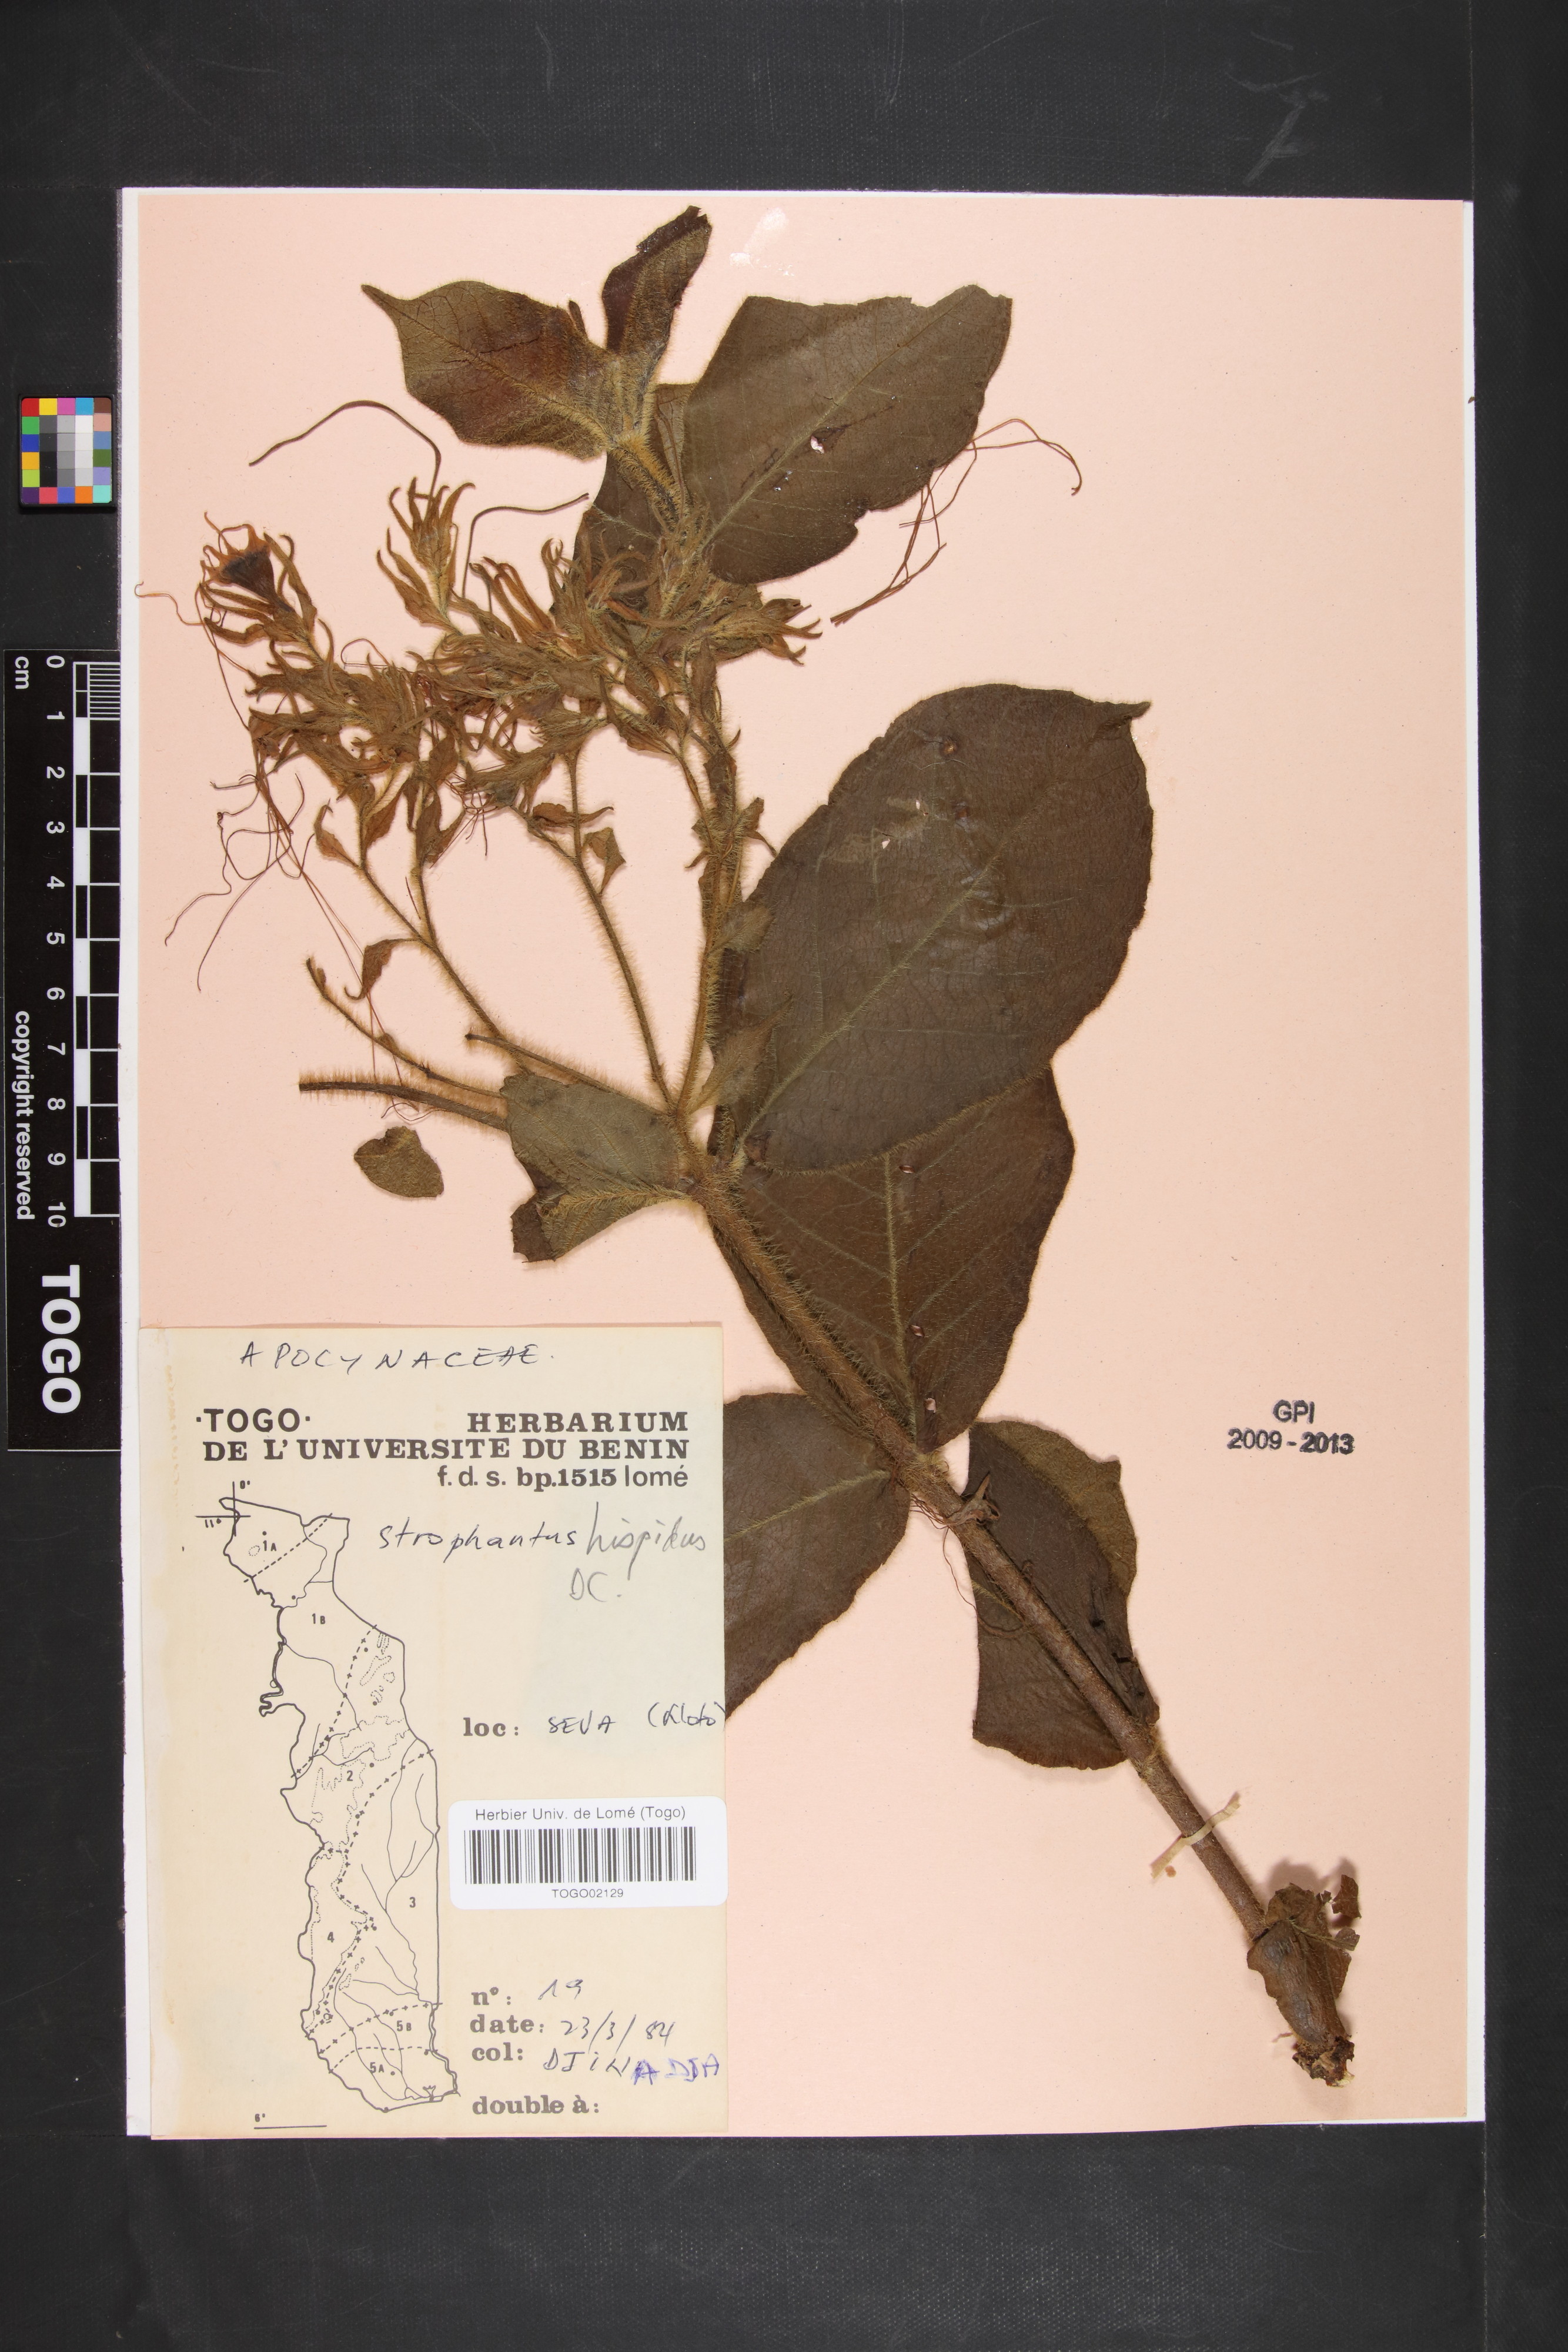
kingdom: Plantae
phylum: Tracheophyta
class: Magnoliopsida
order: Gentianales
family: Apocynaceae
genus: Strophanthus
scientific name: Strophanthus hispidus
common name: Hairy strophanthus
